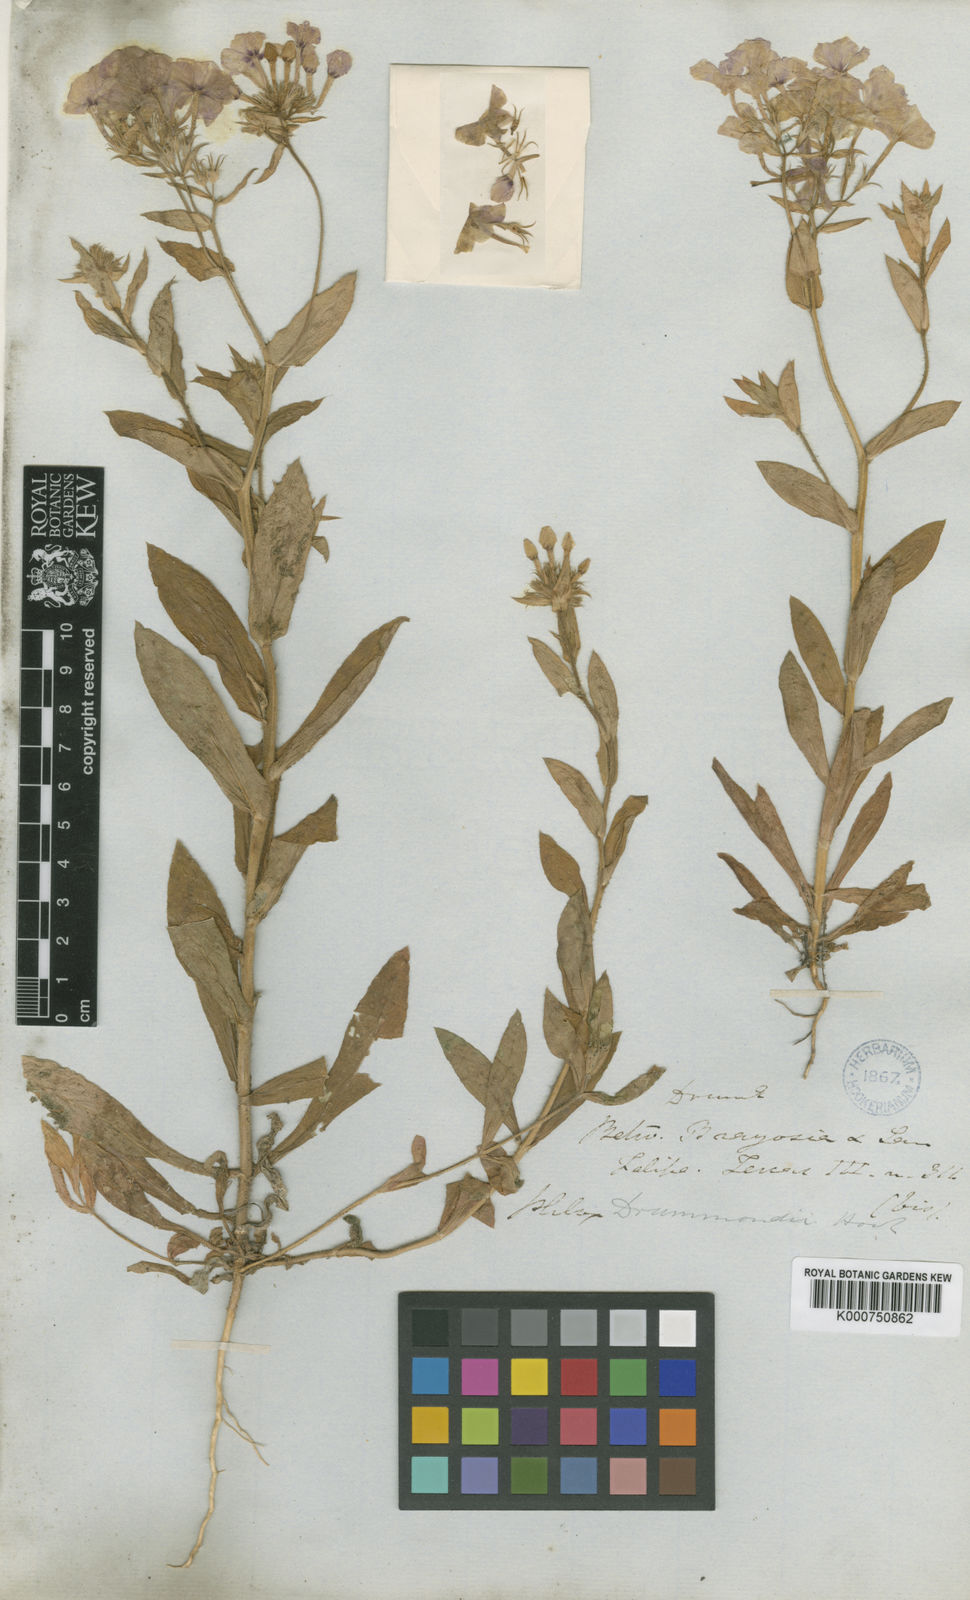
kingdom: Plantae
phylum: Tracheophyta
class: Magnoliopsida
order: Ericales
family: Polemoniaceae
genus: Phlox
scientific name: Phlox drummondii
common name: Drummond's phlox
